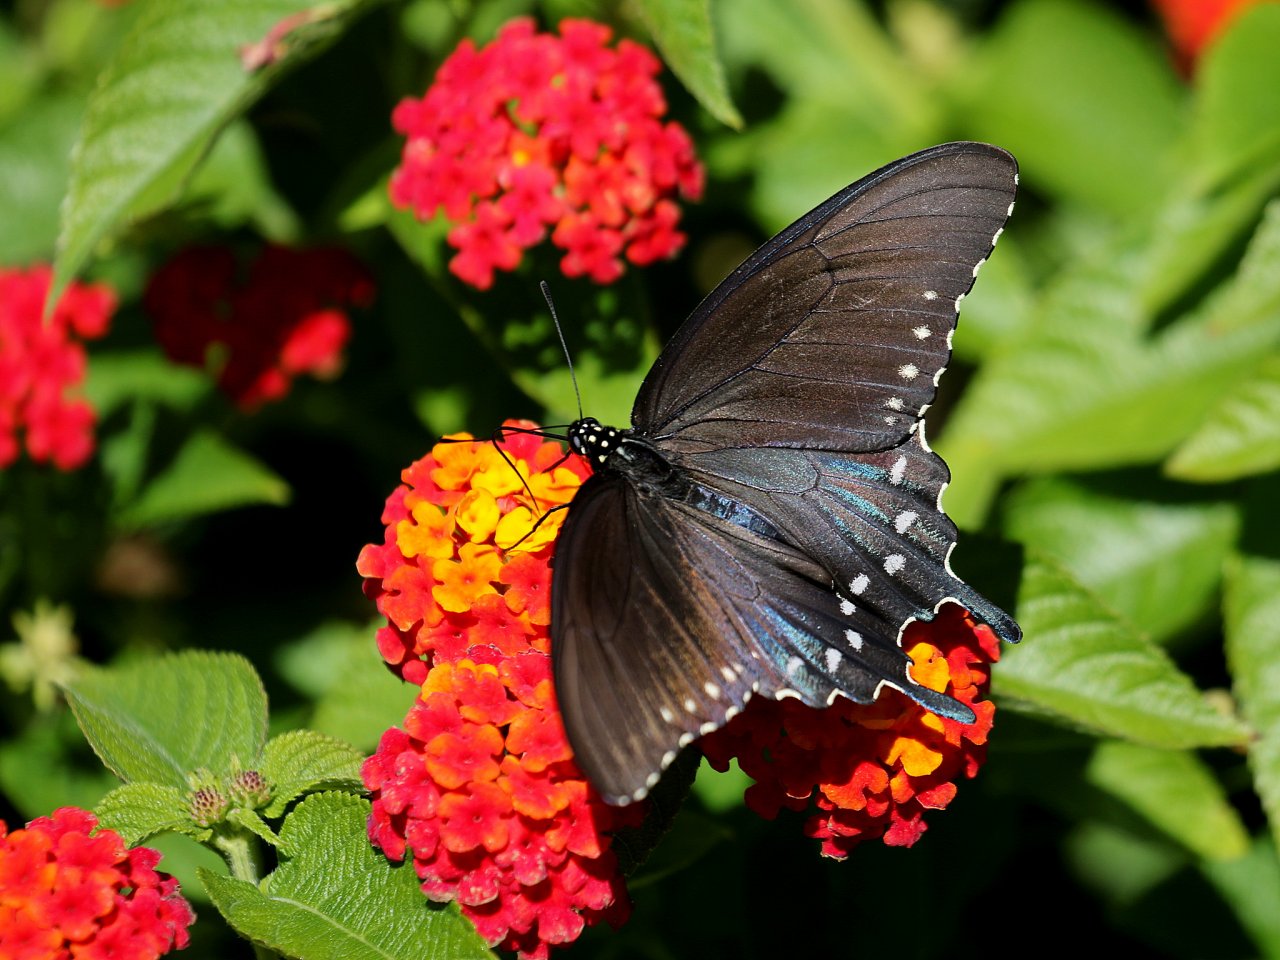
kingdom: Animalia
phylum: Arthropoda
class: Insecta
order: Lepidoptera
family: Papilionidae
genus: Battus
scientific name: Battus philenor
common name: Pipevine Swallowtail
